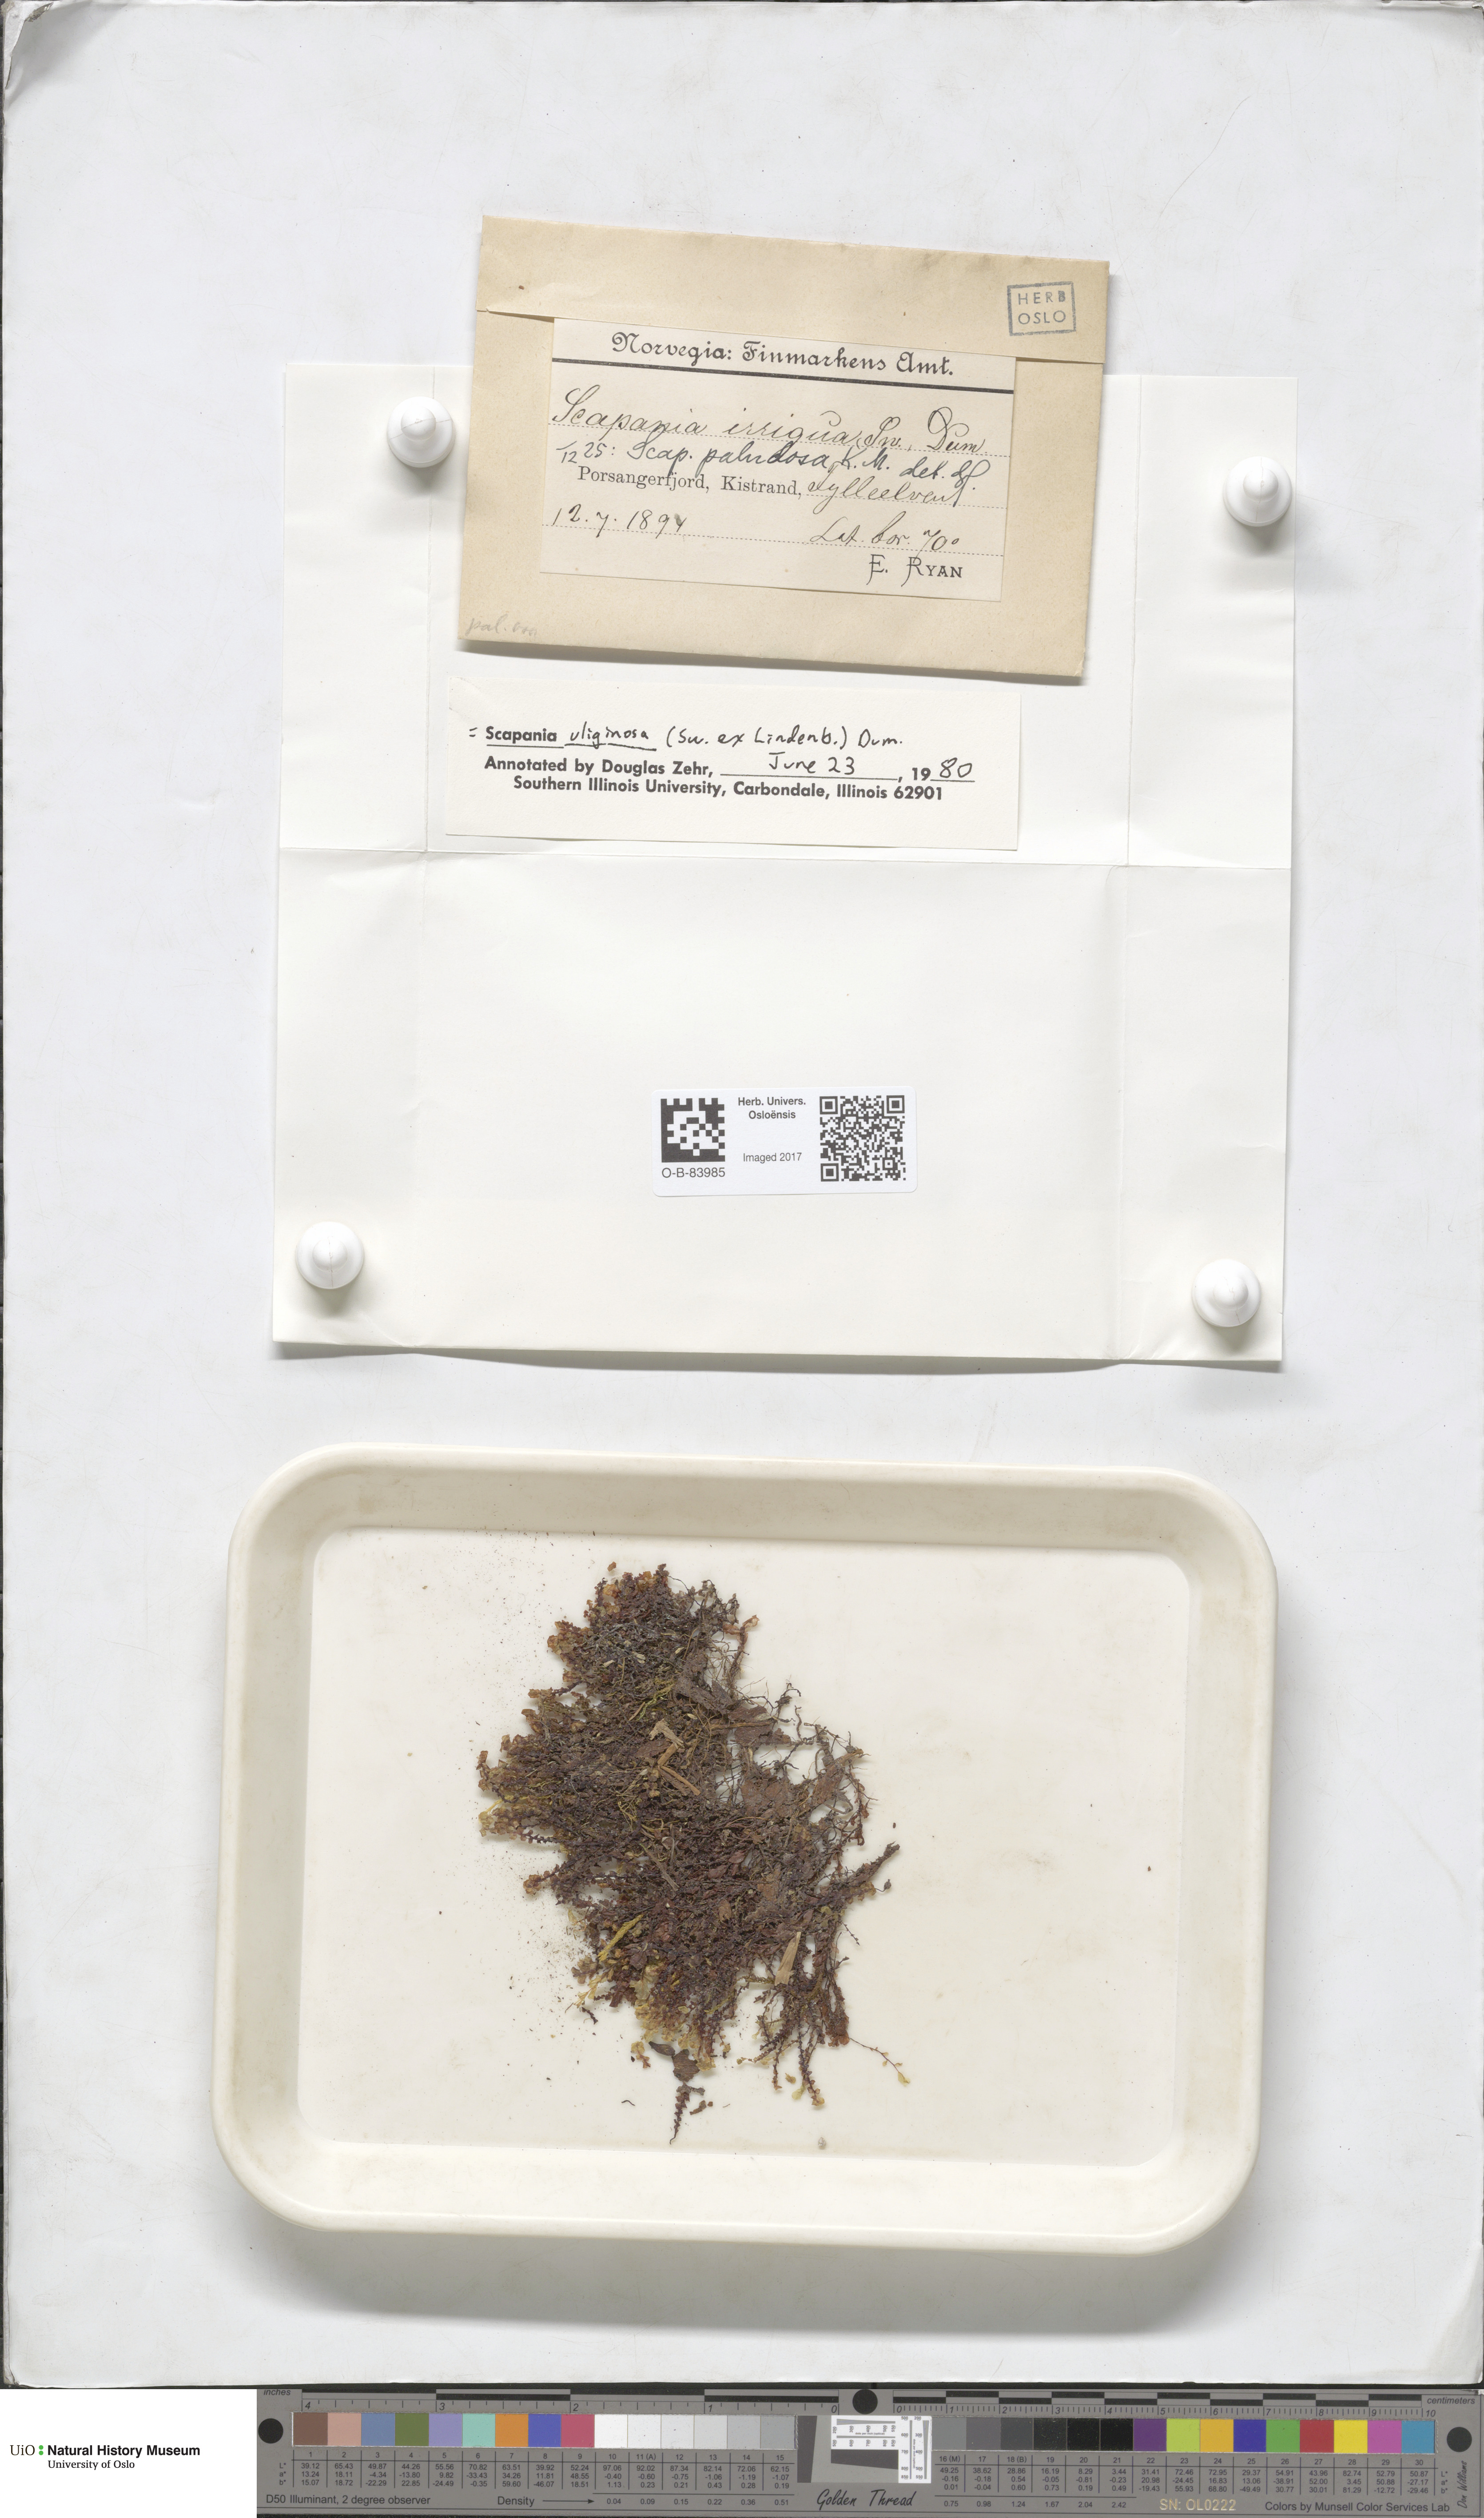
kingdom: Plantae
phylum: Marchantiophyta
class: Jungermanniopsida
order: Jungermanniales
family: Scapaniaceae
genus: Scapania
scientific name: Scapania paludosa
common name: Floppy earwort
